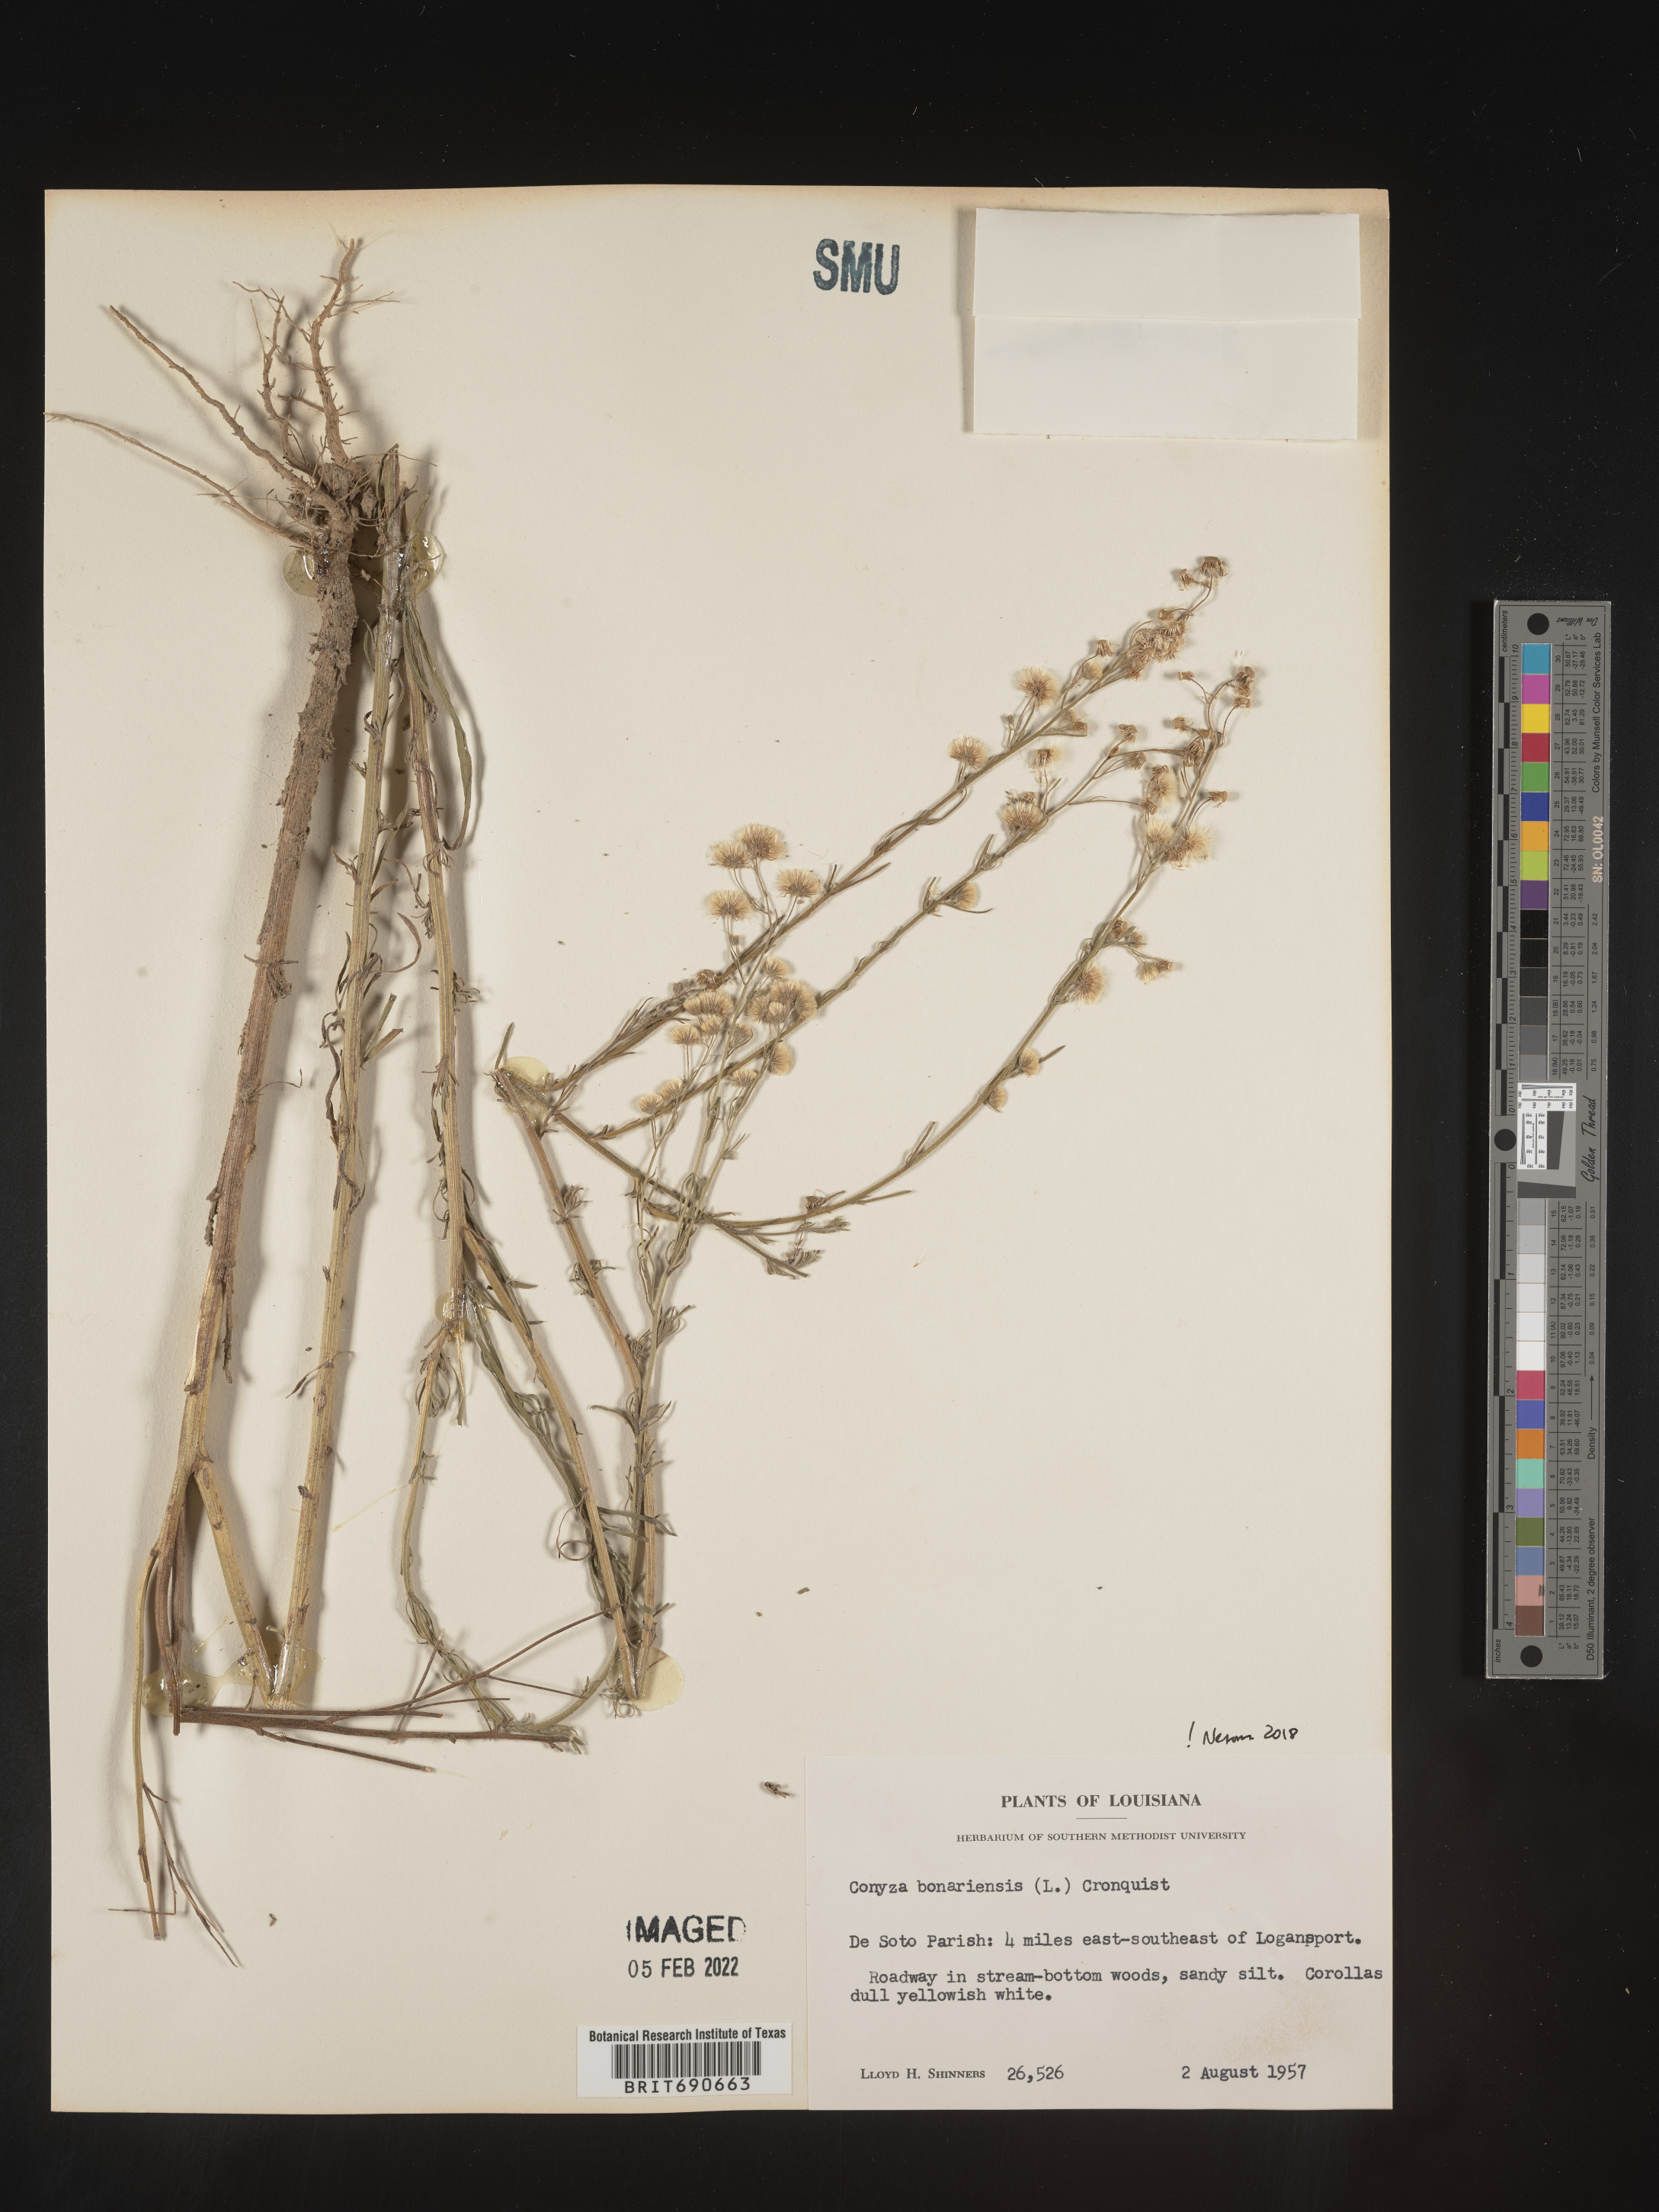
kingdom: Plantae
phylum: Tracheophyta
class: Magnoliopsida
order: Asterales
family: Asteraceae
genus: Erigeron
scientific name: Erigeron bonariensis
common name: Argentine fleabane
